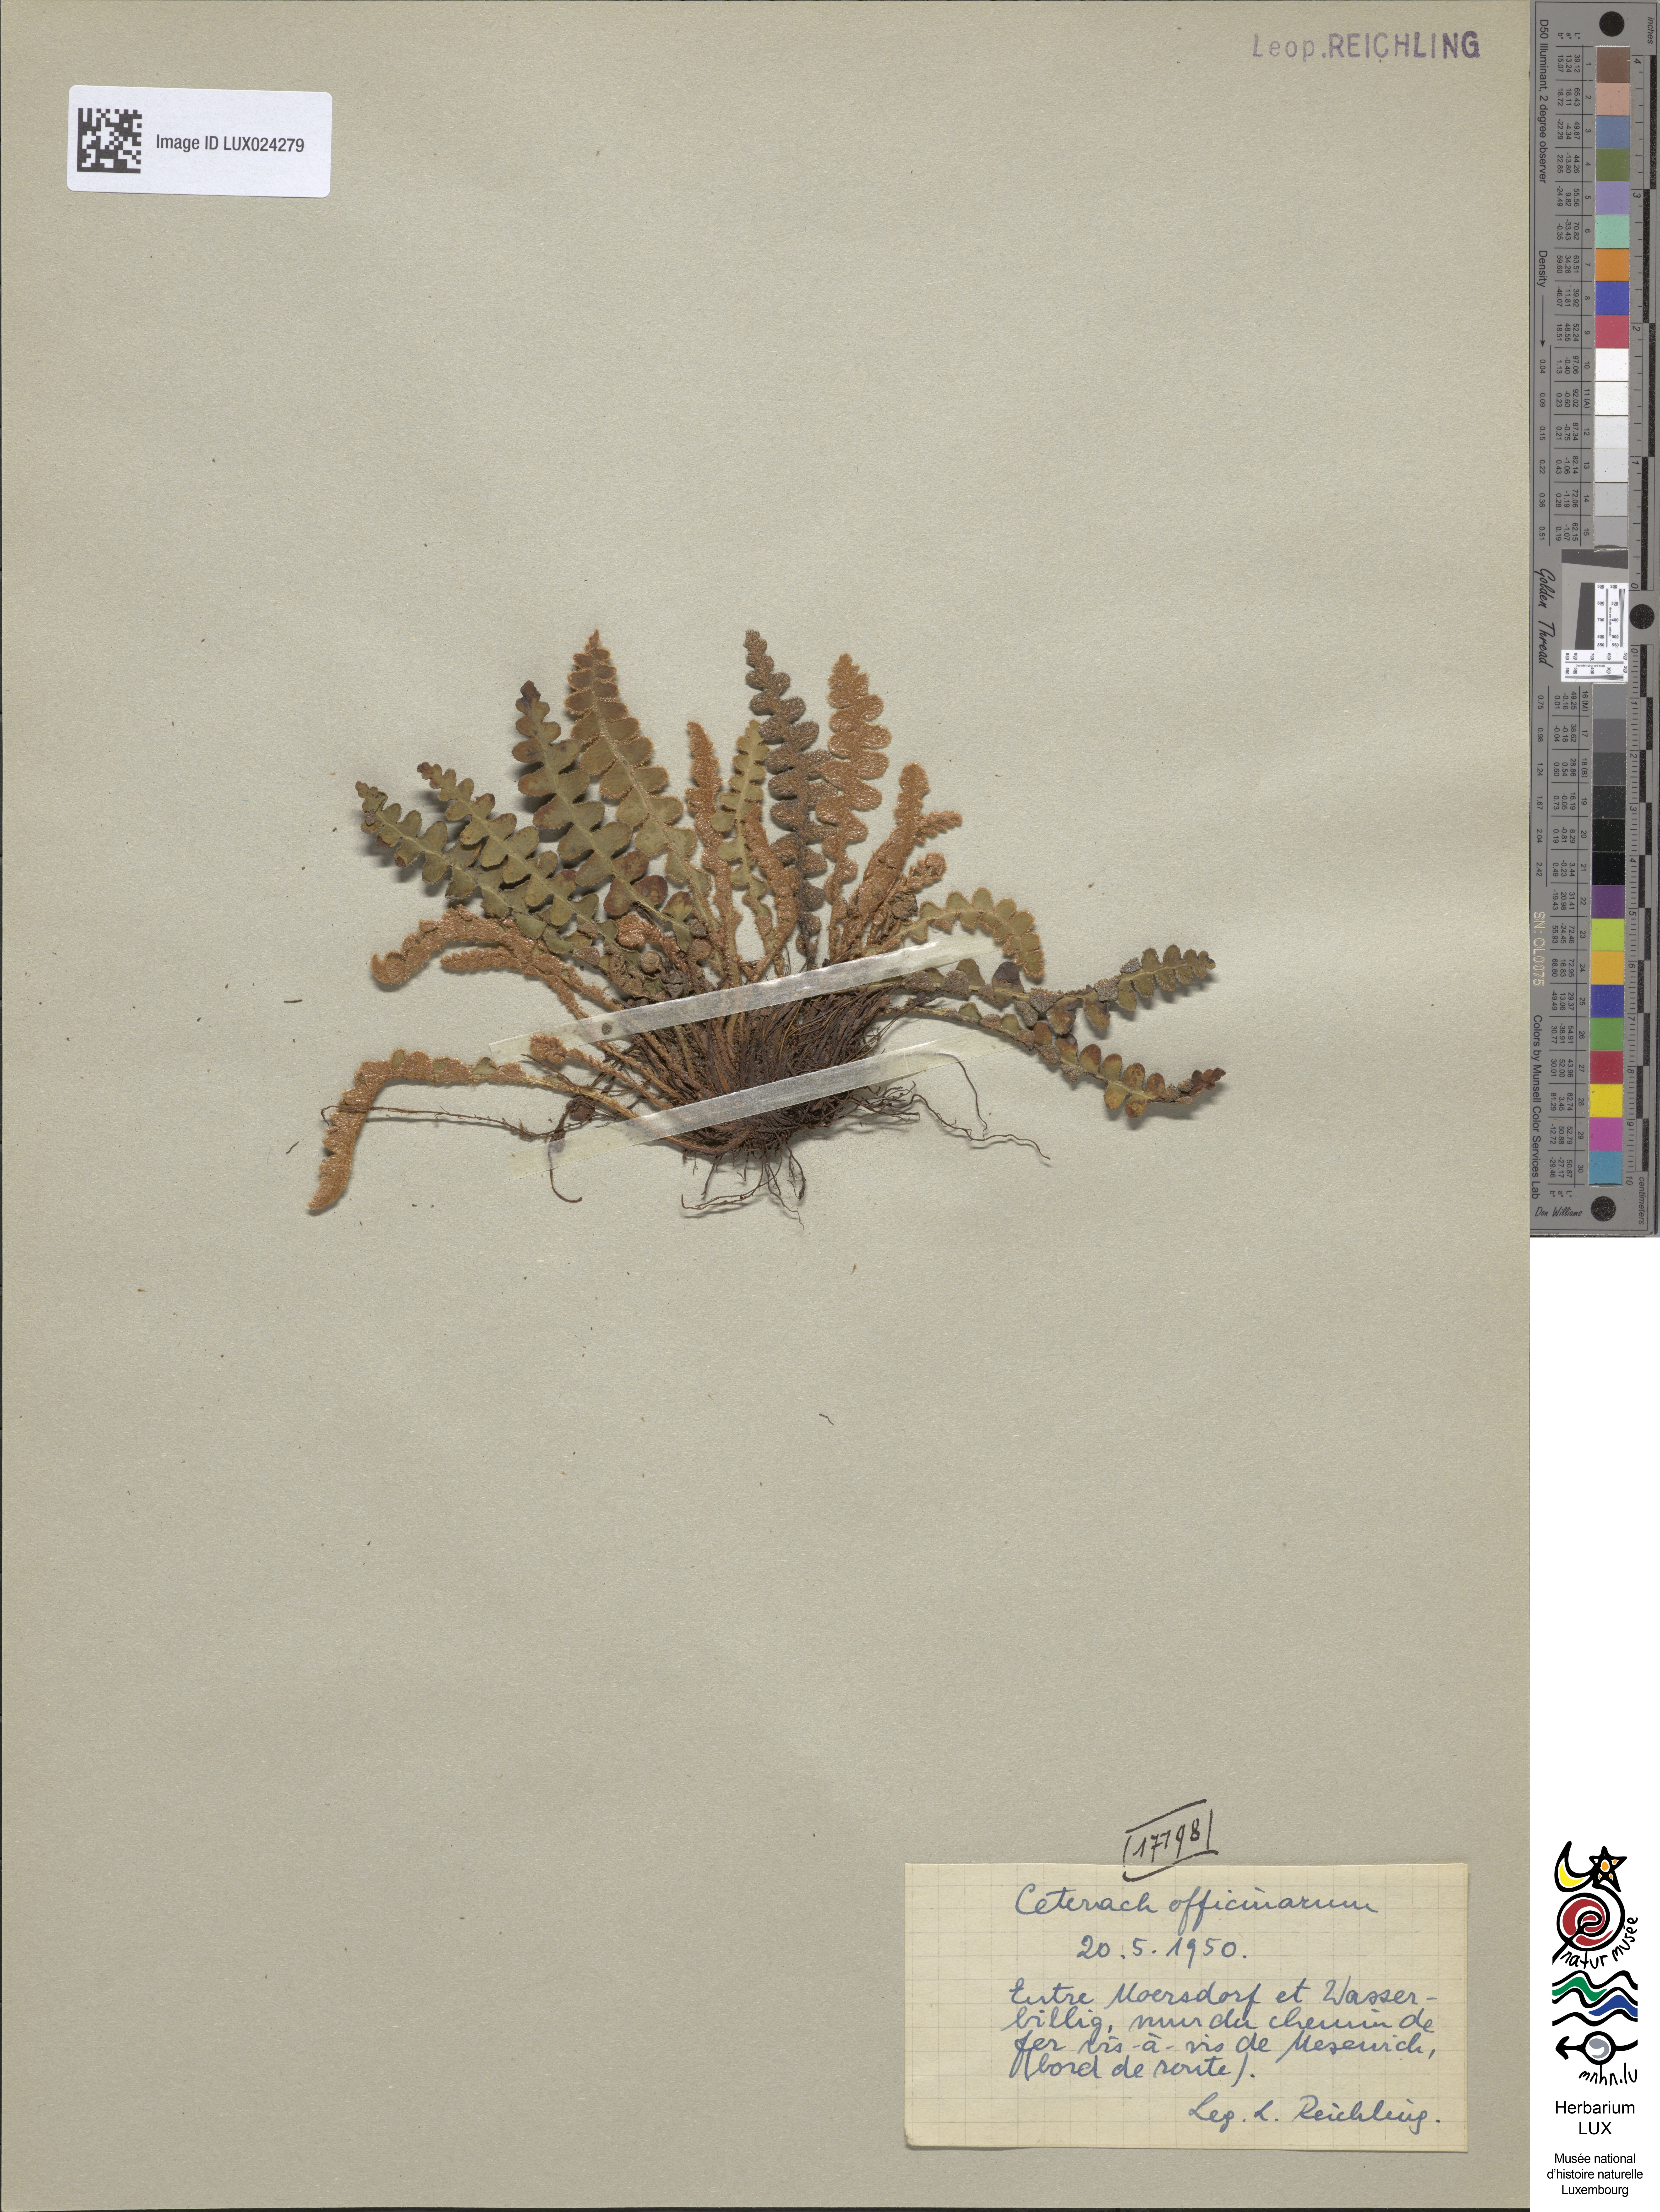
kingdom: Plantae
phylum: Tracheophyta
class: Polypodiopsida
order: Polypodiales
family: Aspleniaceae
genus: Asplenium
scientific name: Asplenium ceterach
